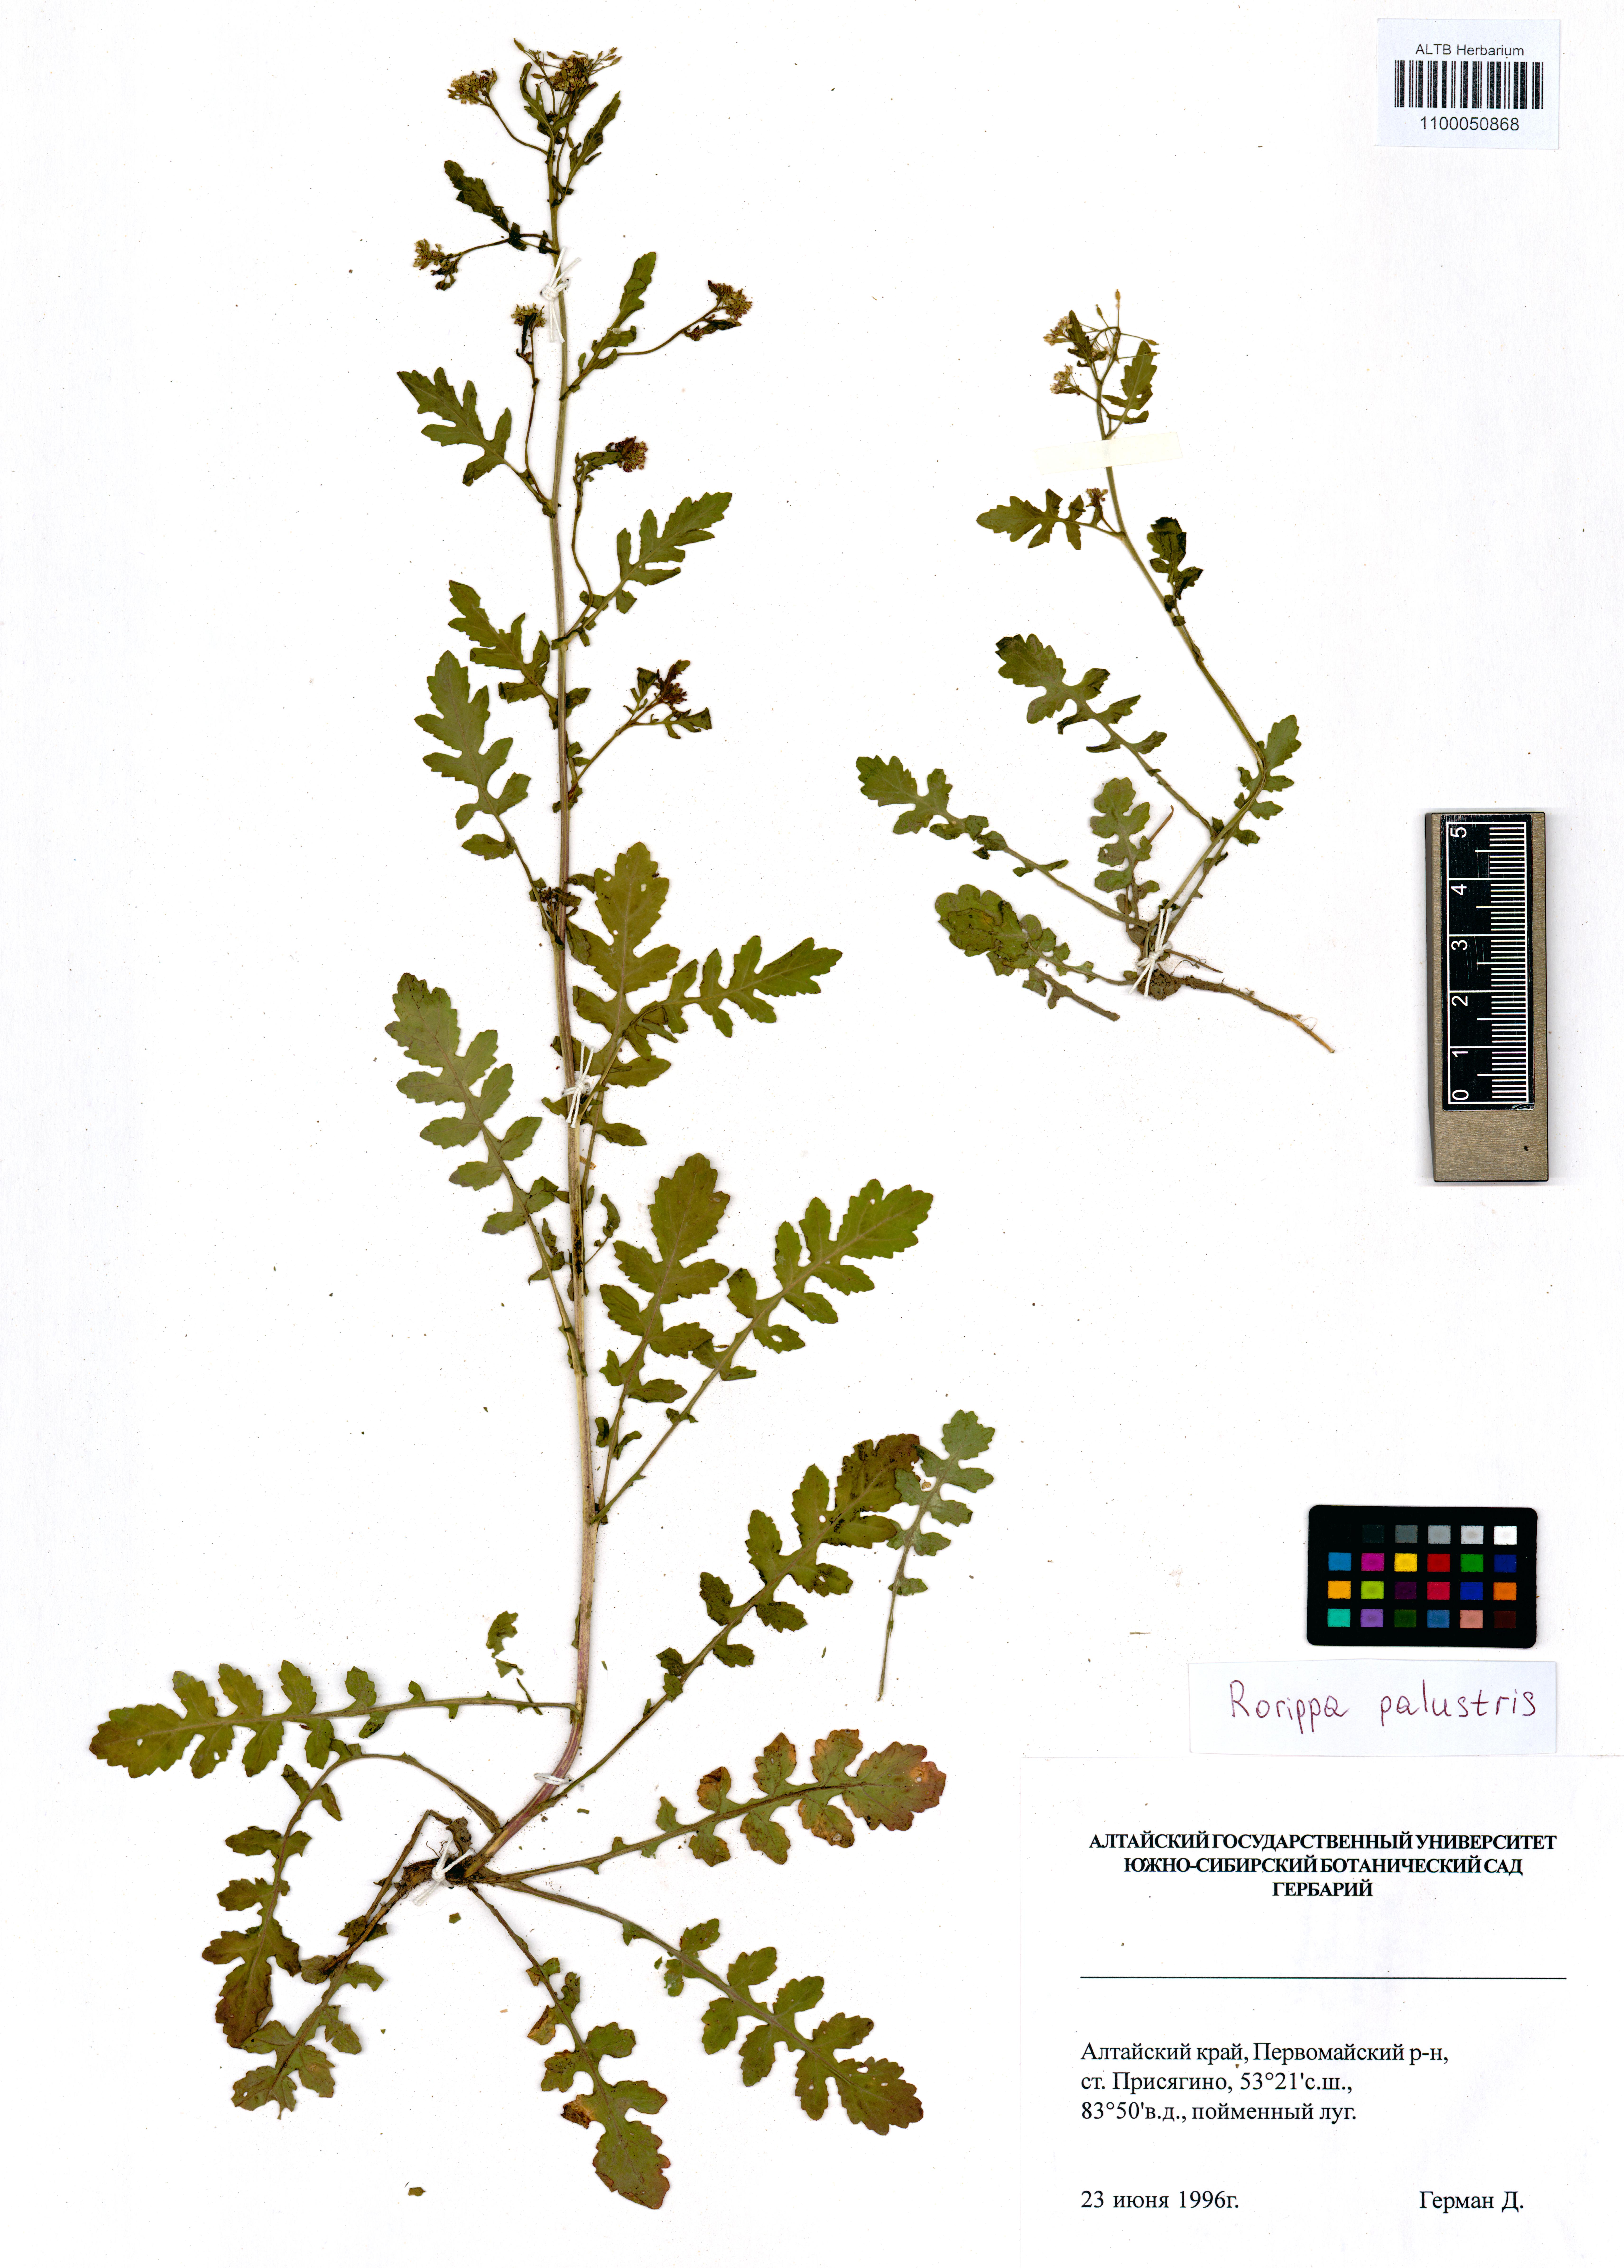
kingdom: Plantae
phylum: Tracheophyta
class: Magnoliopsida
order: Brassicales
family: Brassicaceae
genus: Rorippa
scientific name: Rorippa palustris
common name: Marsh yellow-cress
